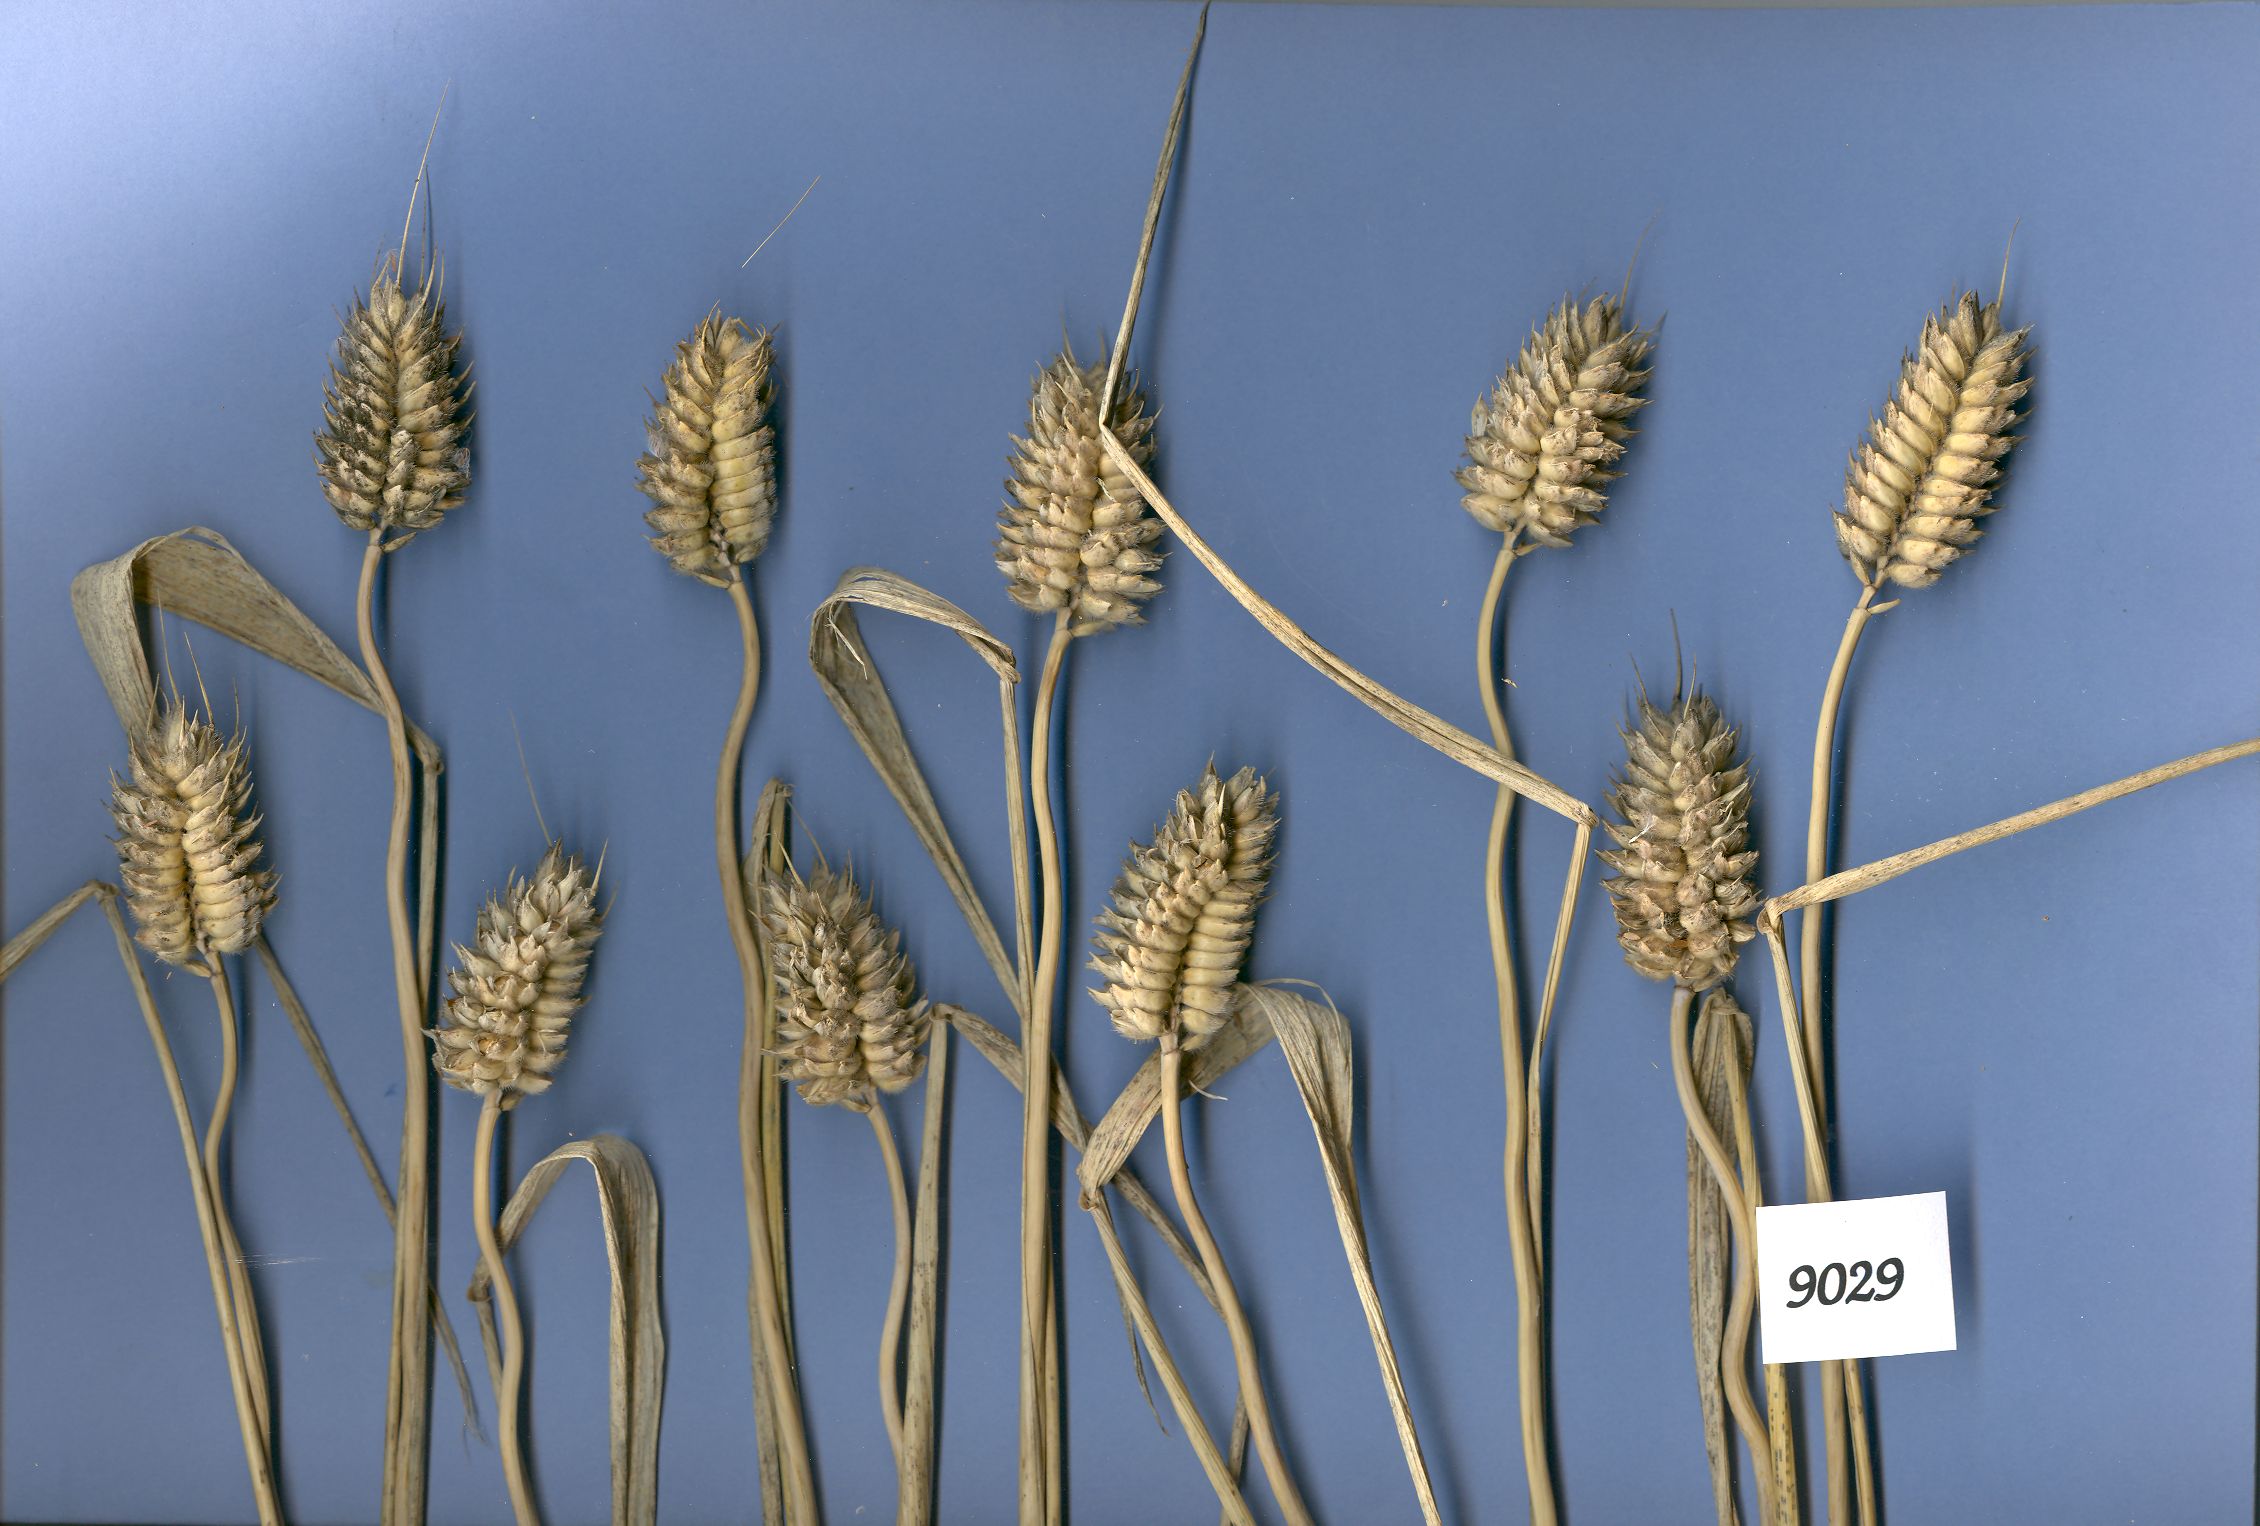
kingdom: Plantae
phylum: Tracheophyta
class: Liliopsida
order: Poales
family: Poaceae
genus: Triticum
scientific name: Triticum aestivum
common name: Common wheat
